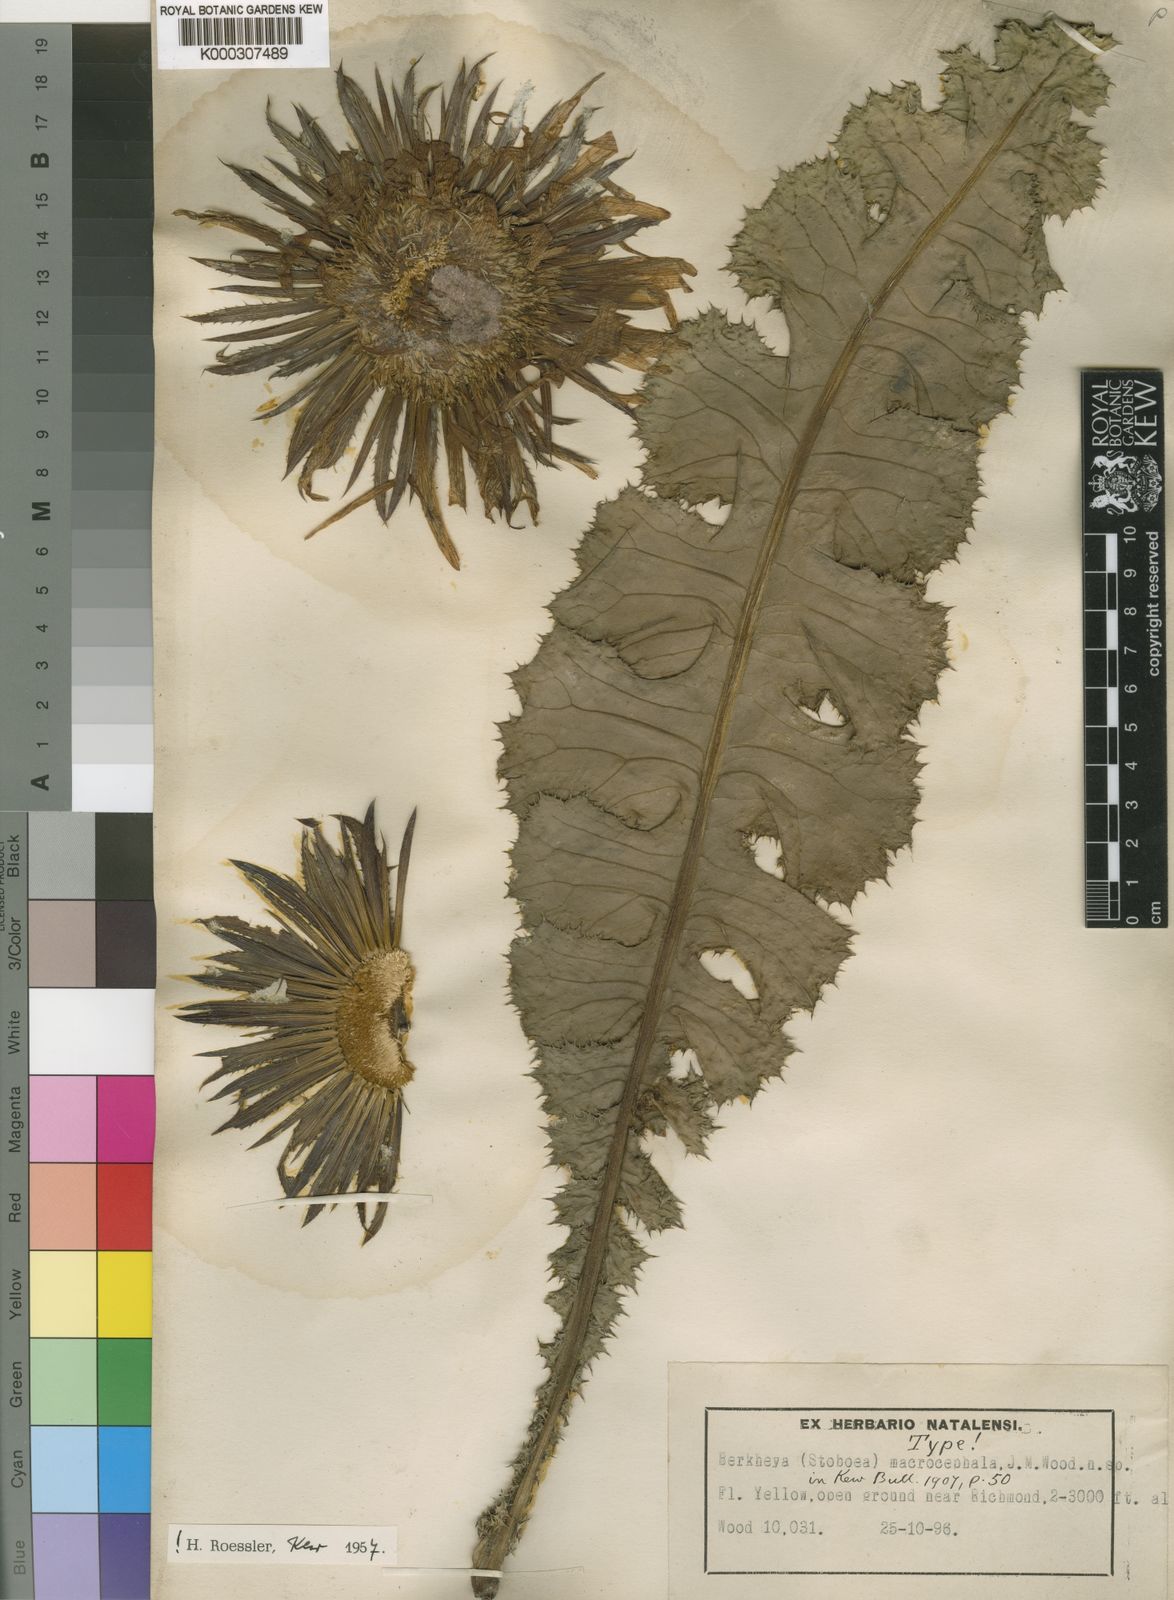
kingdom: Plantae
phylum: Tracheophyta
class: Magnoliopsida
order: Asterales
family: Asteraceae
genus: Berkheya
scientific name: Berkheya macrocephala
